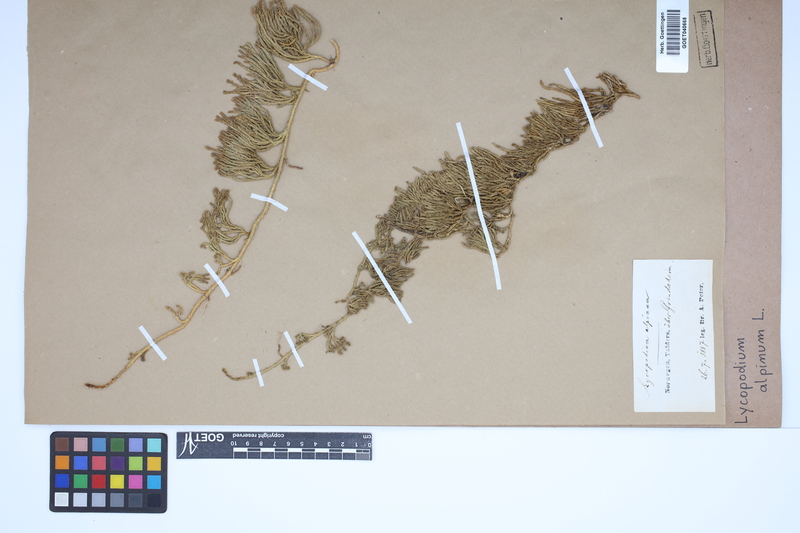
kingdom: Plantae
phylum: Tracheophyta
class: Lycopodiopsida
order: Lycopodiales
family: Lycopodiaceae
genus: Diphasiastrum
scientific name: Diphasiastrum alpinum
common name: Alpine clubmoss
